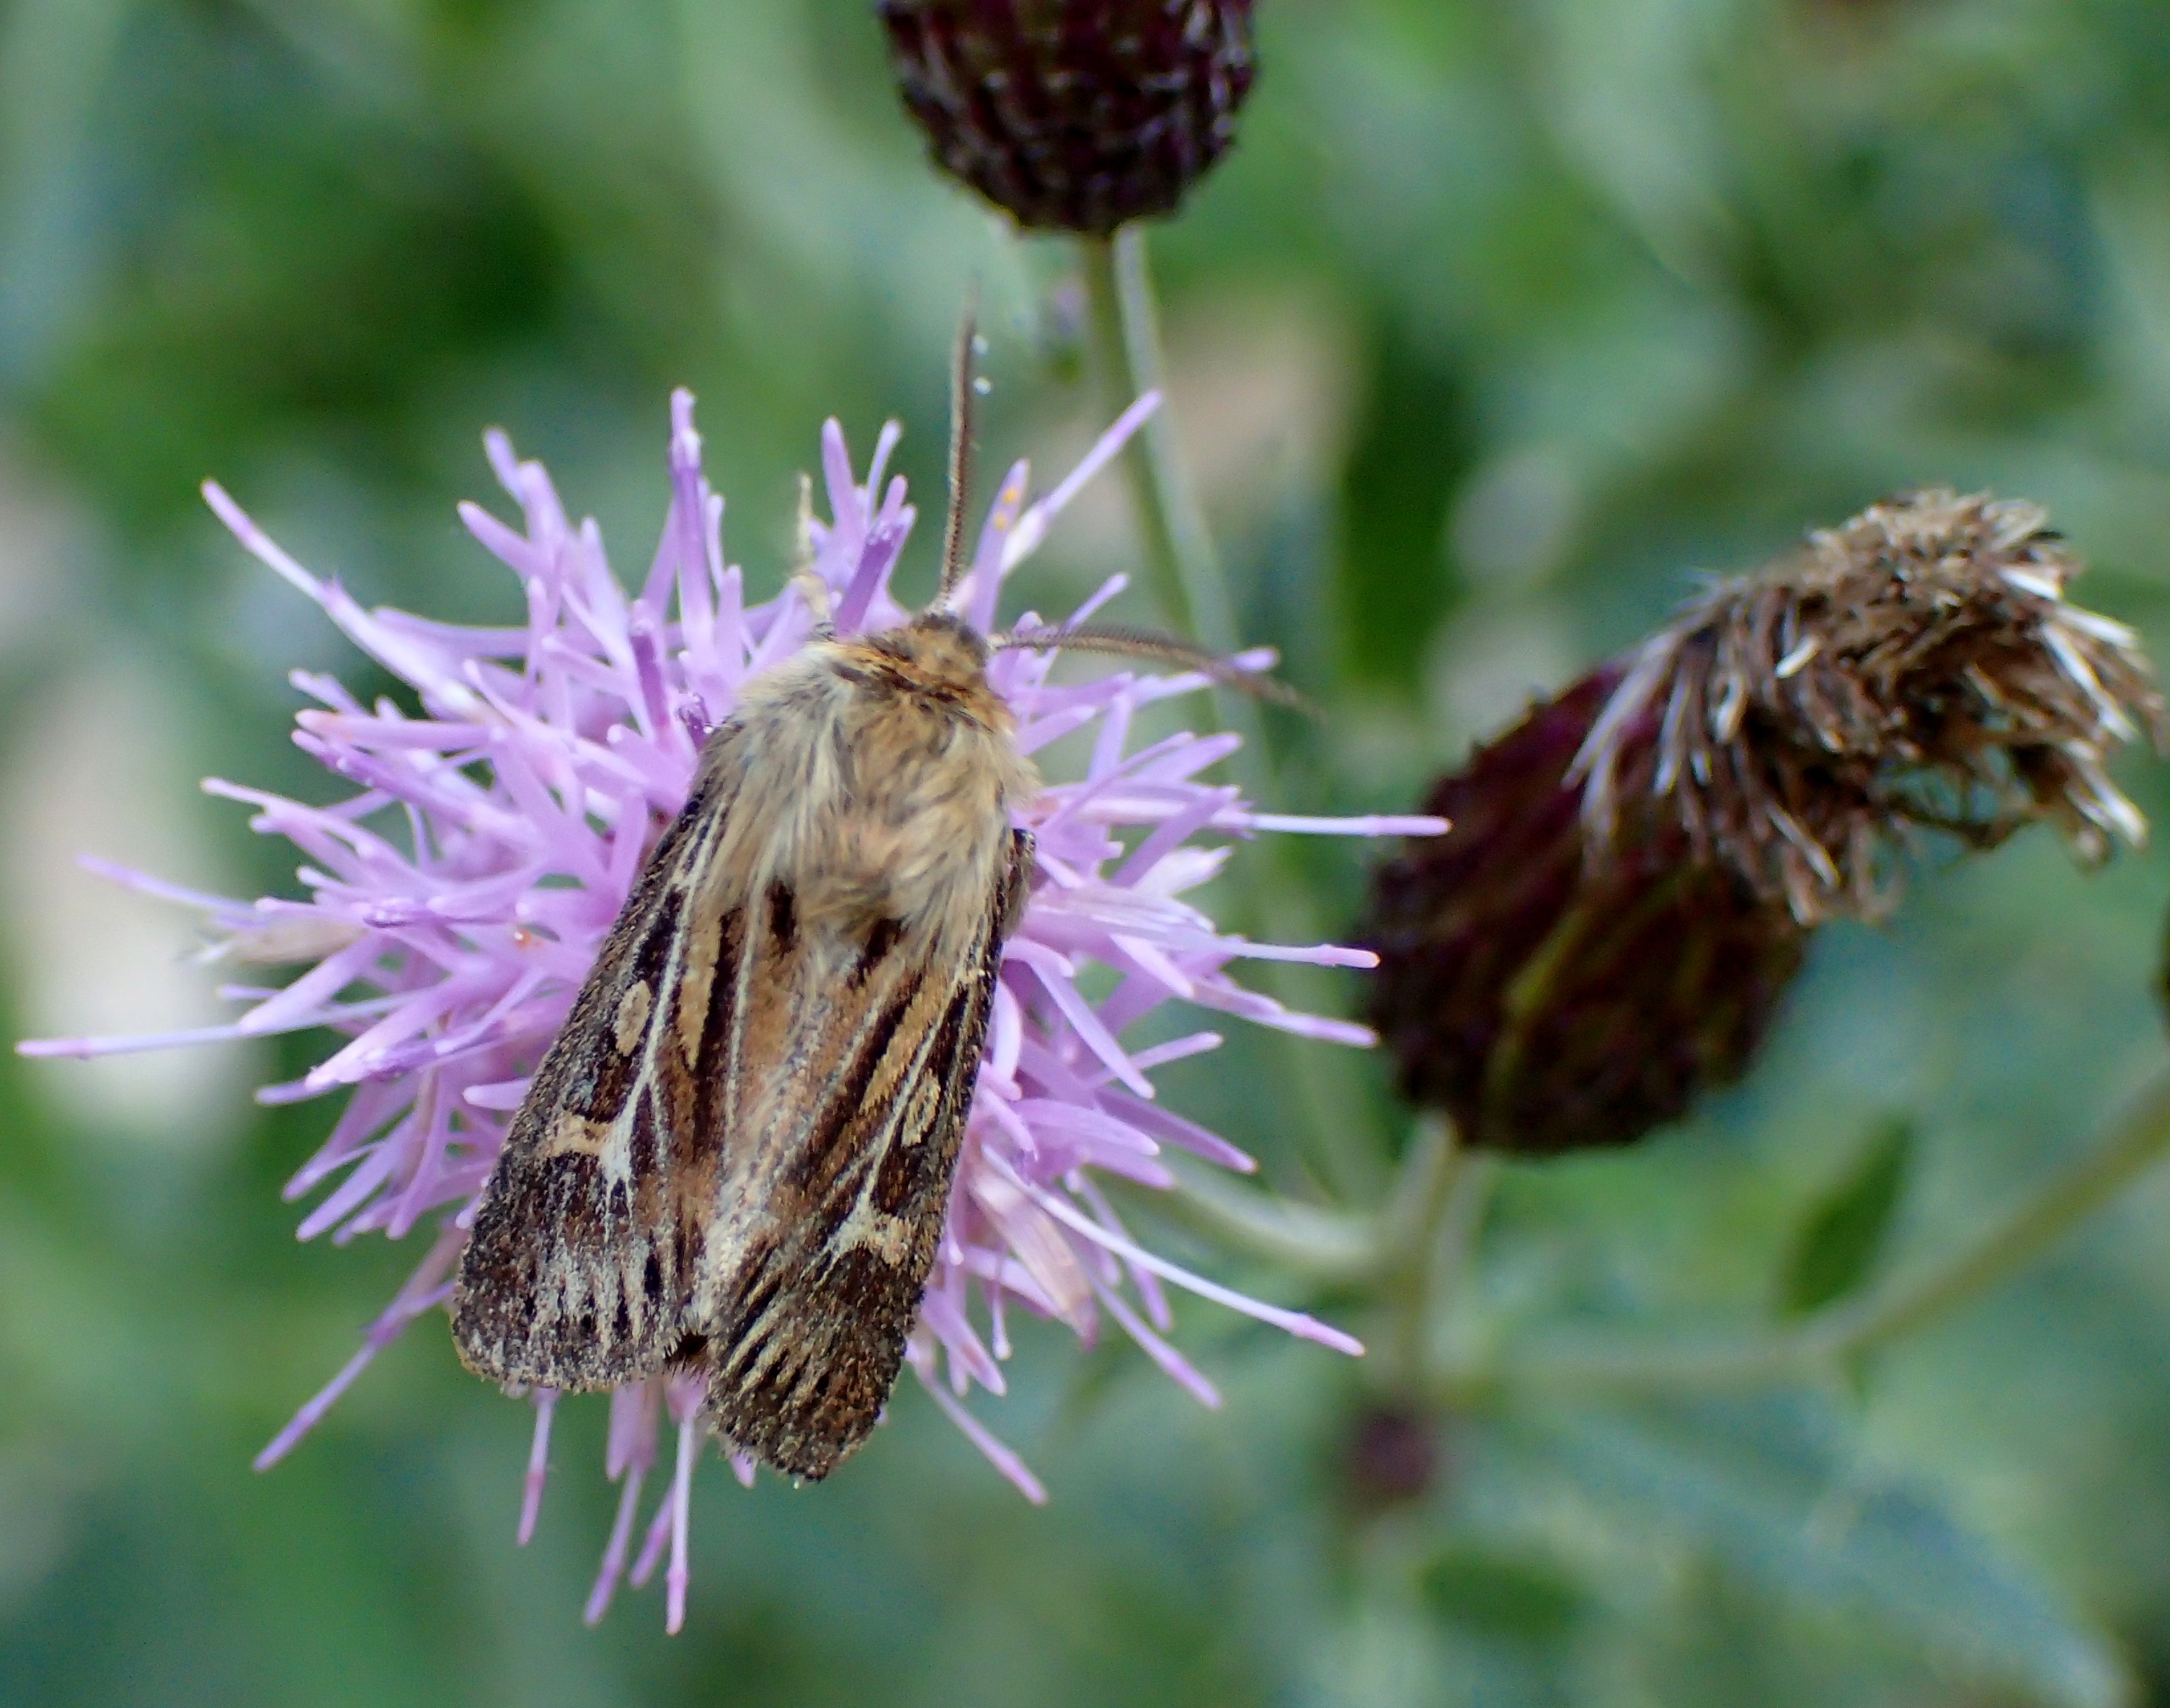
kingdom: Animalia
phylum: Arthropoda
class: Insecta
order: Lepidoptera
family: Noctuidae
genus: Cerapteryx
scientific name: Cerapteryx graminis
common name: Mosebunkeugle
